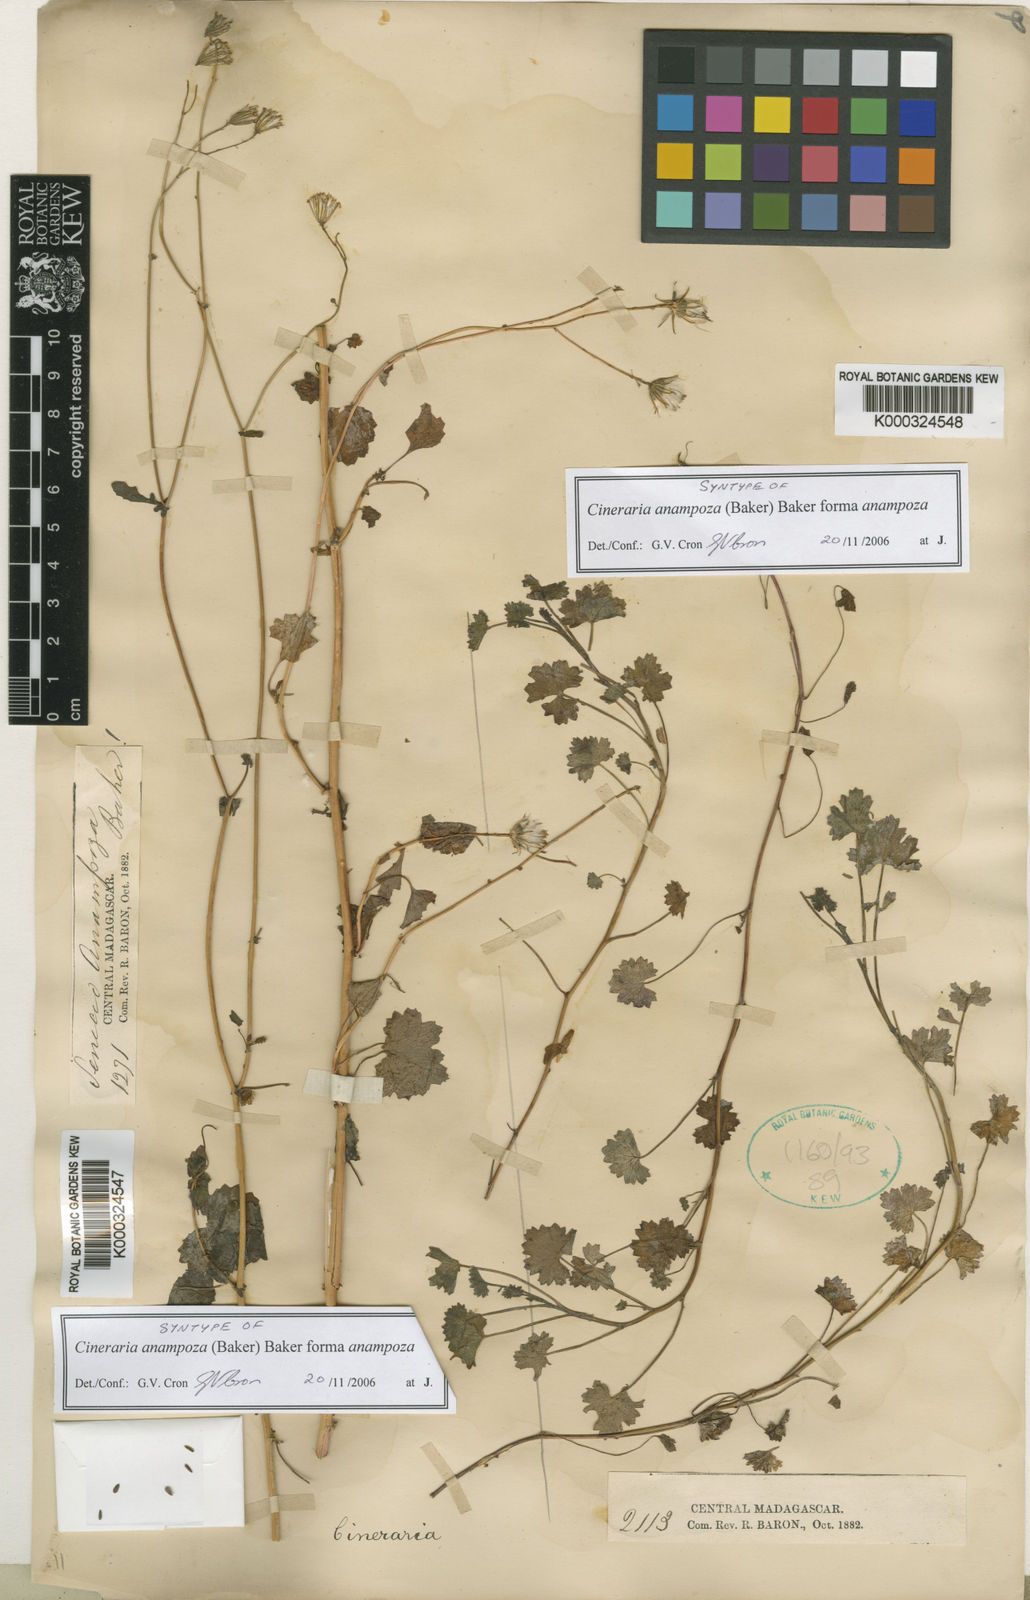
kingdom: Plantae
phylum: Tracheophyta
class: Magnoliopsida
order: Asterales
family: Asteraceae
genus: Cineraria
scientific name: Cineraria anampoza
